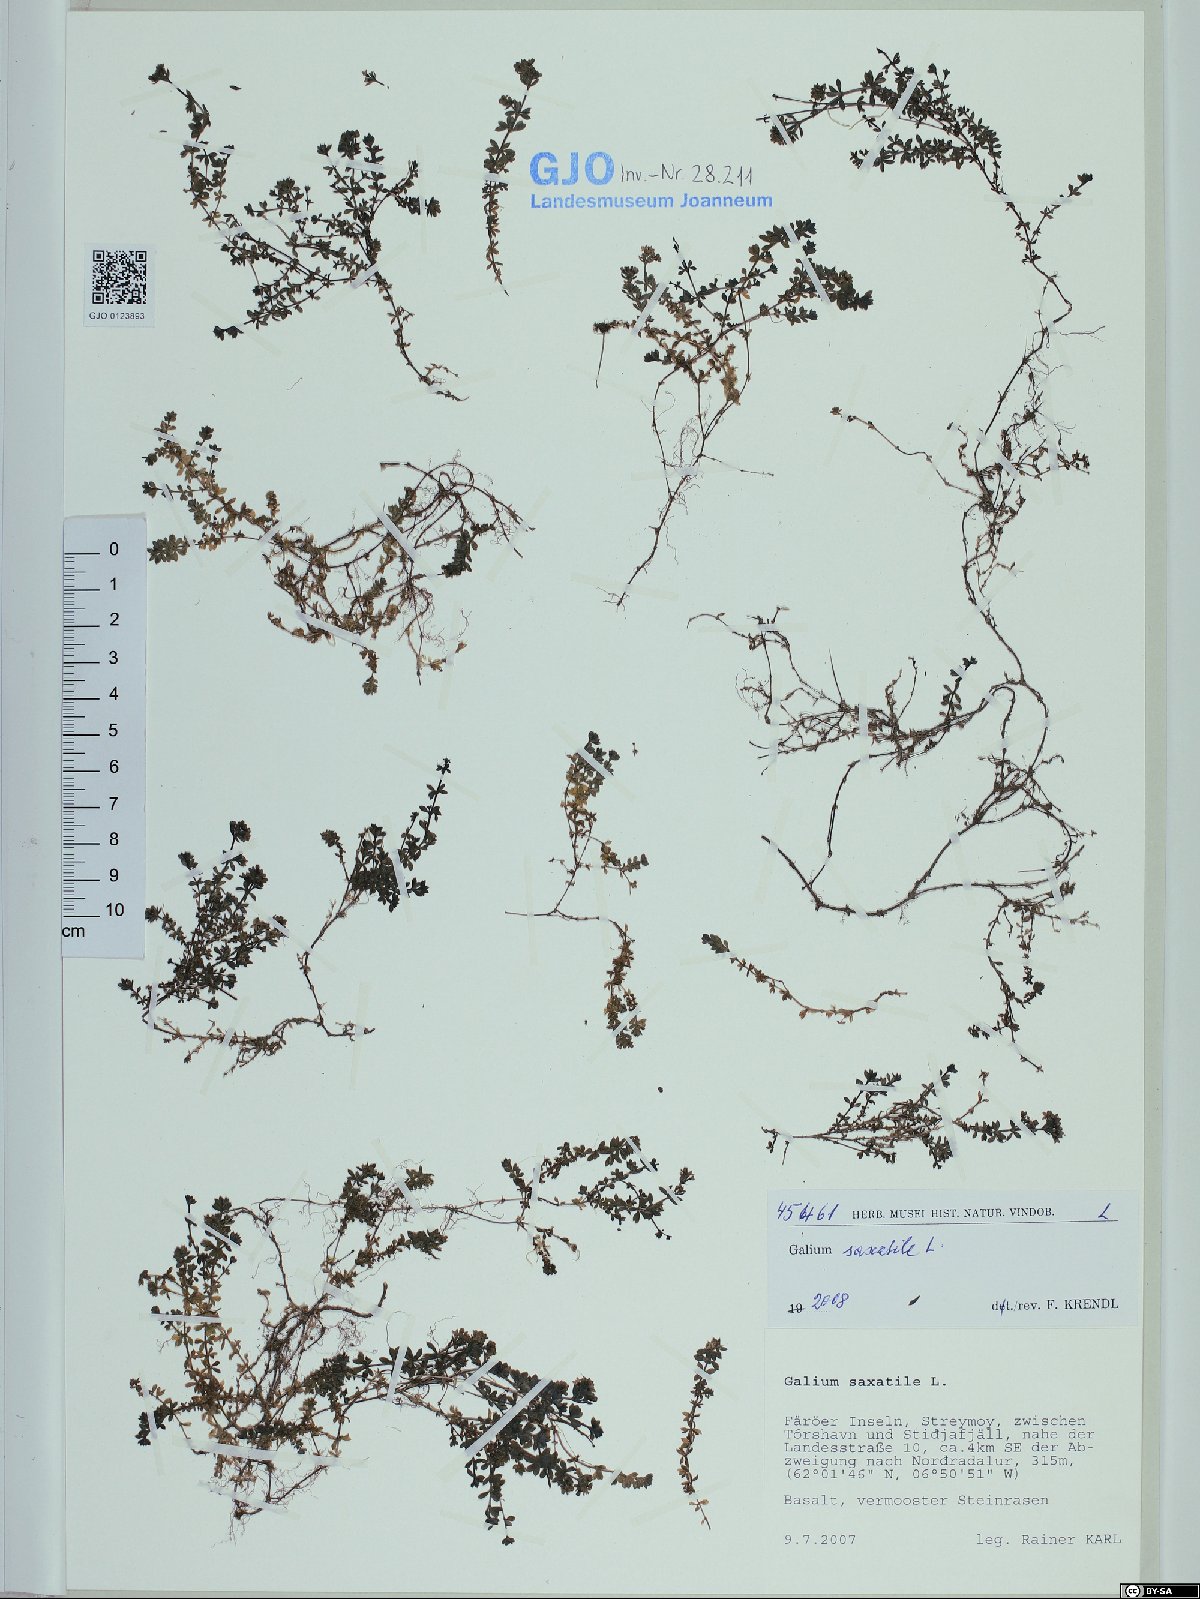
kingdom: Plantae
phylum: Tracheophyta
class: Magnoliopsida
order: Gentianales
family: Rubiaceae
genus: Galium
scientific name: Galium saxatile
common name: Heath bedstraw
